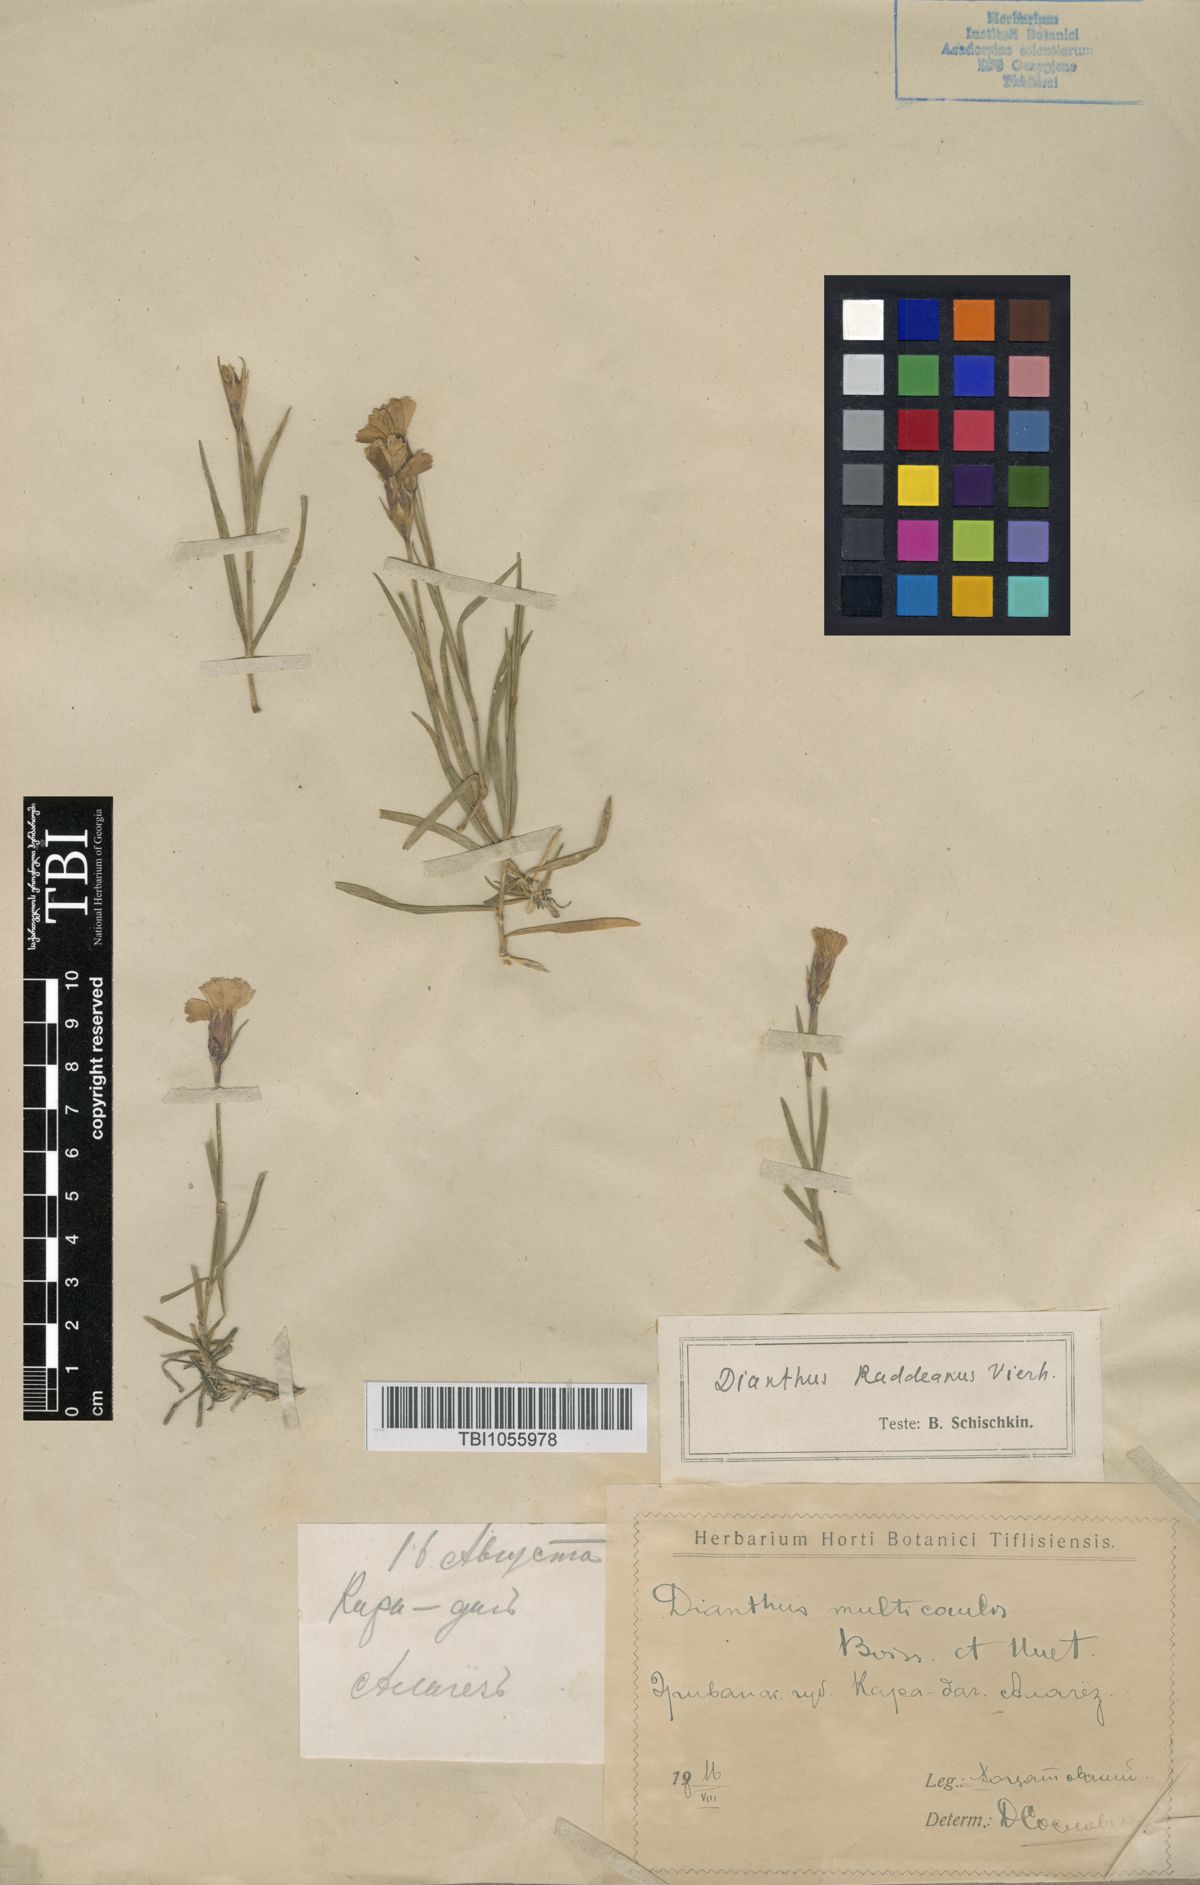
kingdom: Plantae
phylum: Tracheophyta
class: Magnoliopsida
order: Caryophyllales
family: Caryophyllaceae
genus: Dianthus
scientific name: Dianthus raddeanus
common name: Radde's pink
